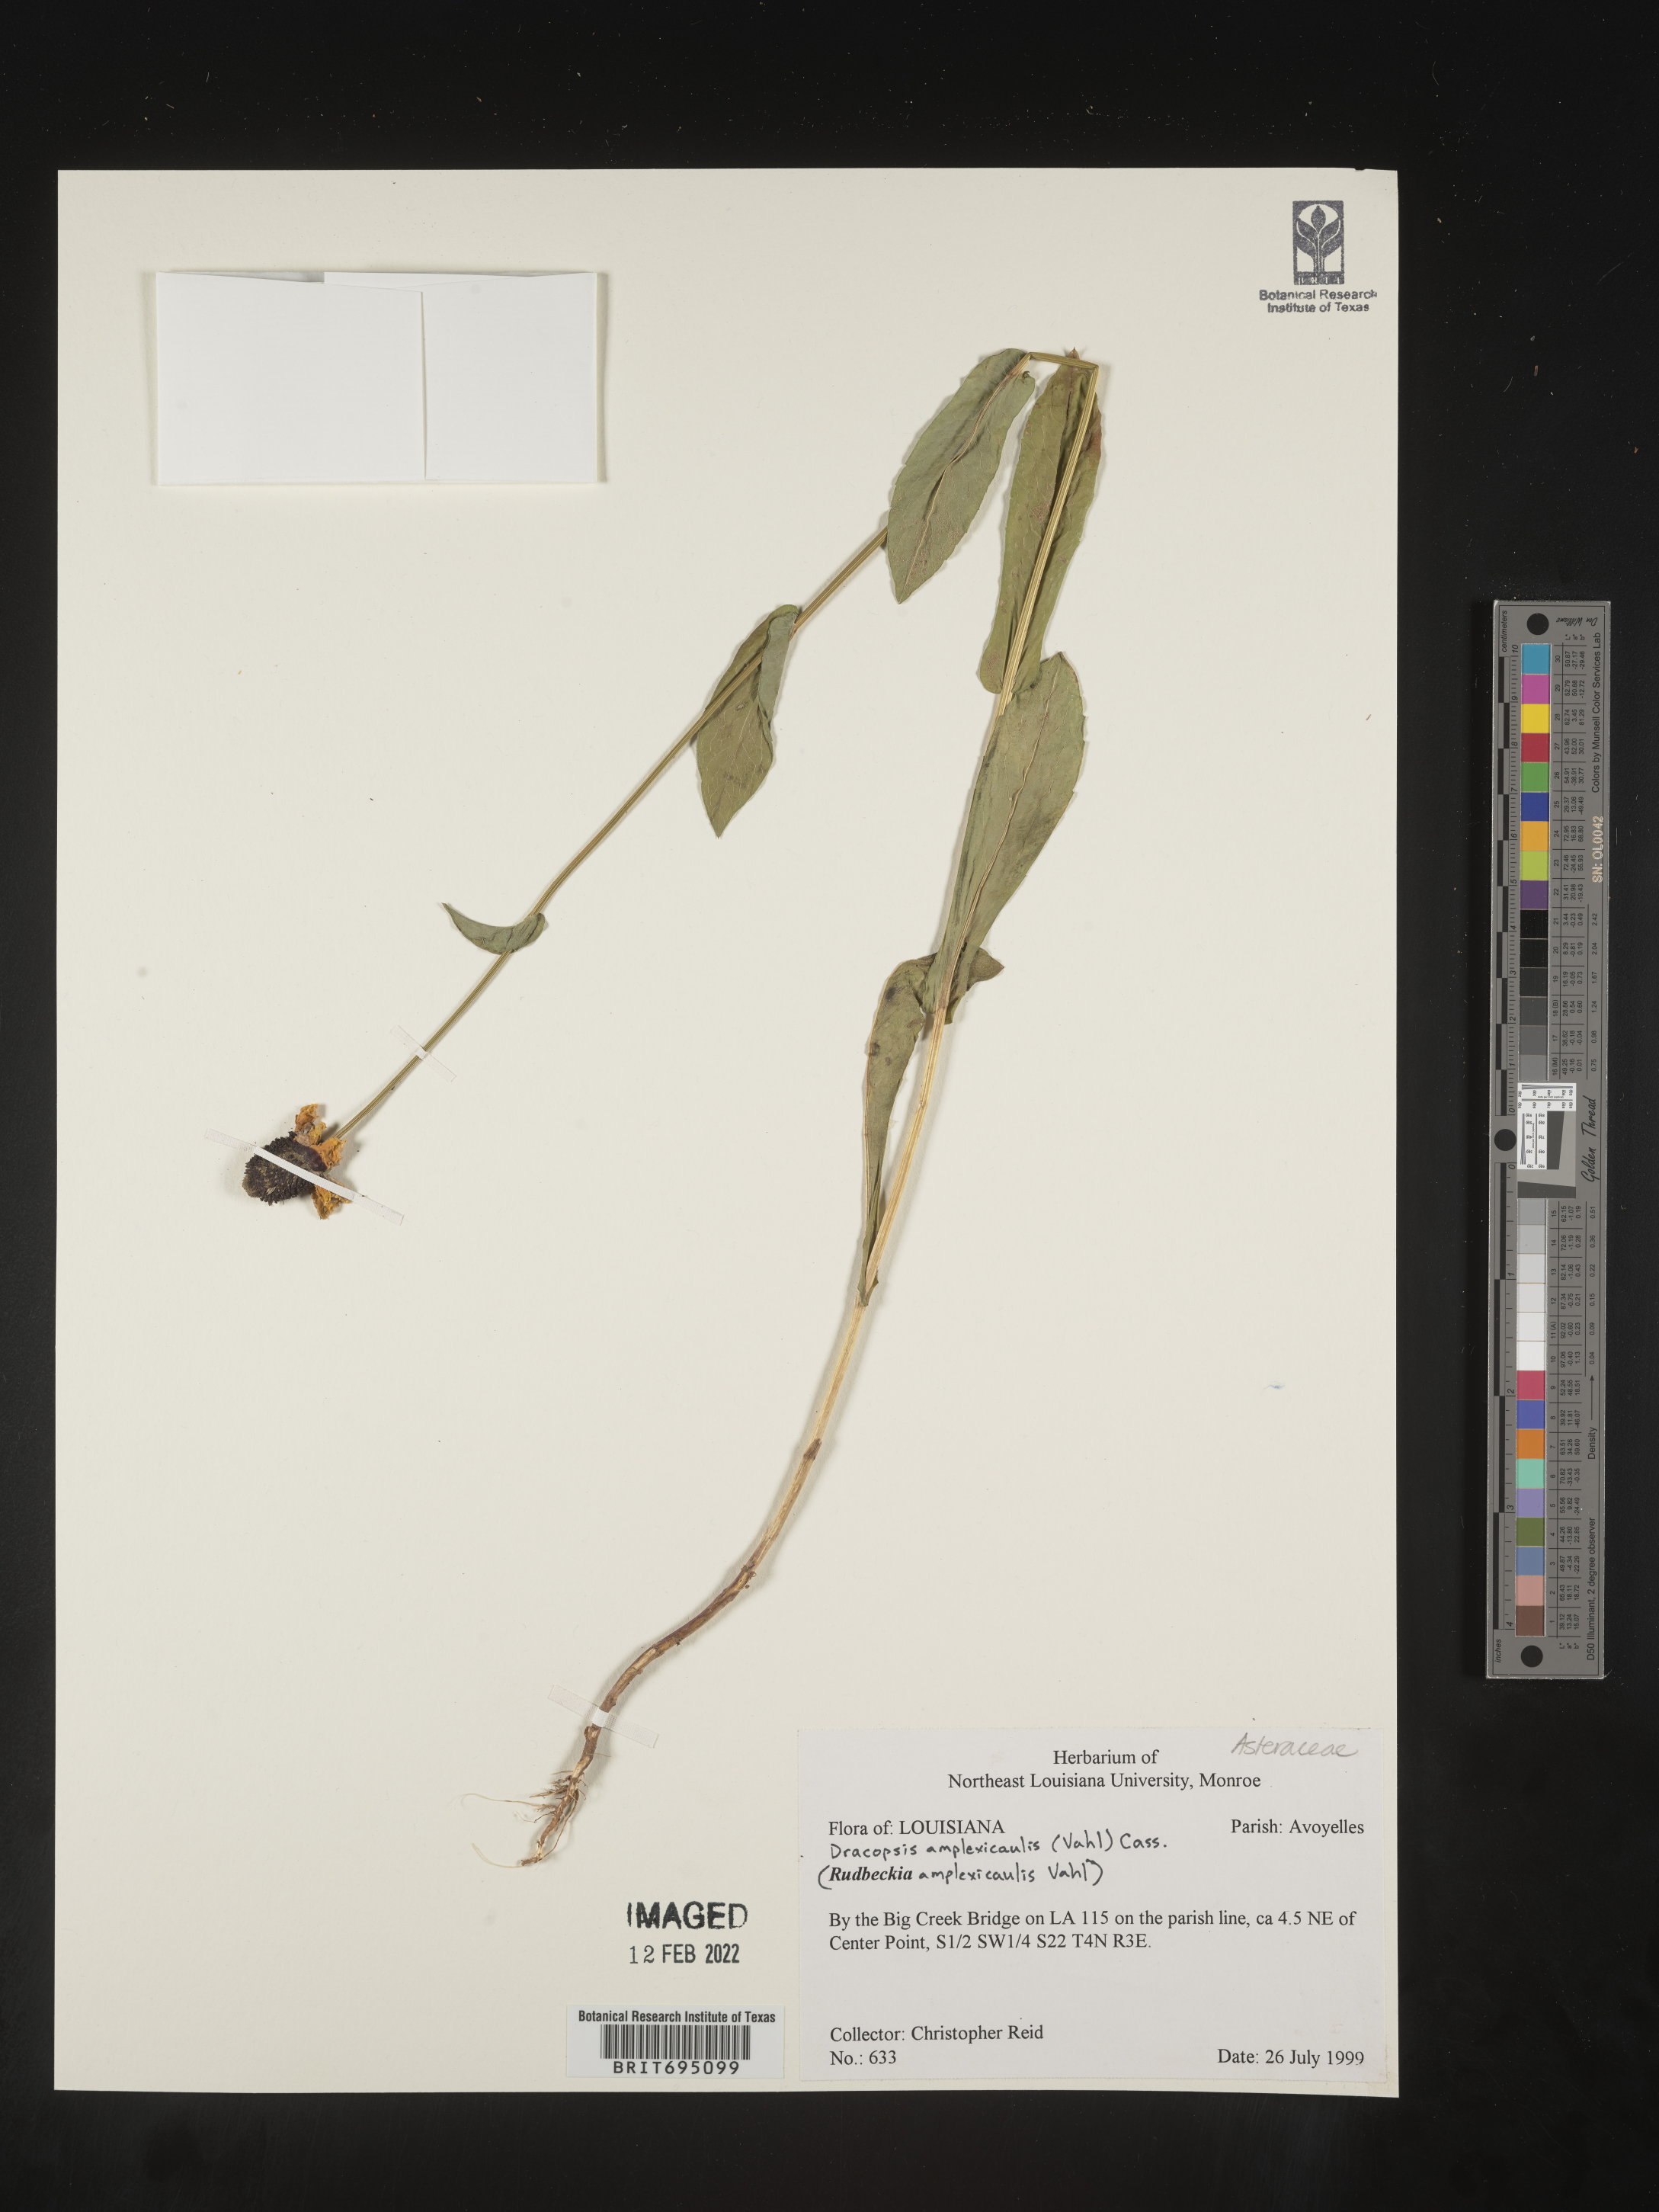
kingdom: Plantae
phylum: Tracheophyta
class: Magnoliopsida
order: Asterales
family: Asteraceae
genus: Rudbeckia
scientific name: Rudbeckia amplexicaulis
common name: Clasping-leaf coneflower
